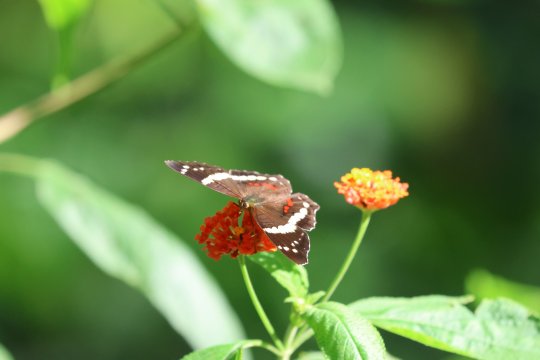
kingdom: Animalia
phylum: Arthropoda
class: Insecta
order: Lepidoptera
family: Nymphalidae
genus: Anartia
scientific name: Anartia fatima
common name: Banded Peacock
